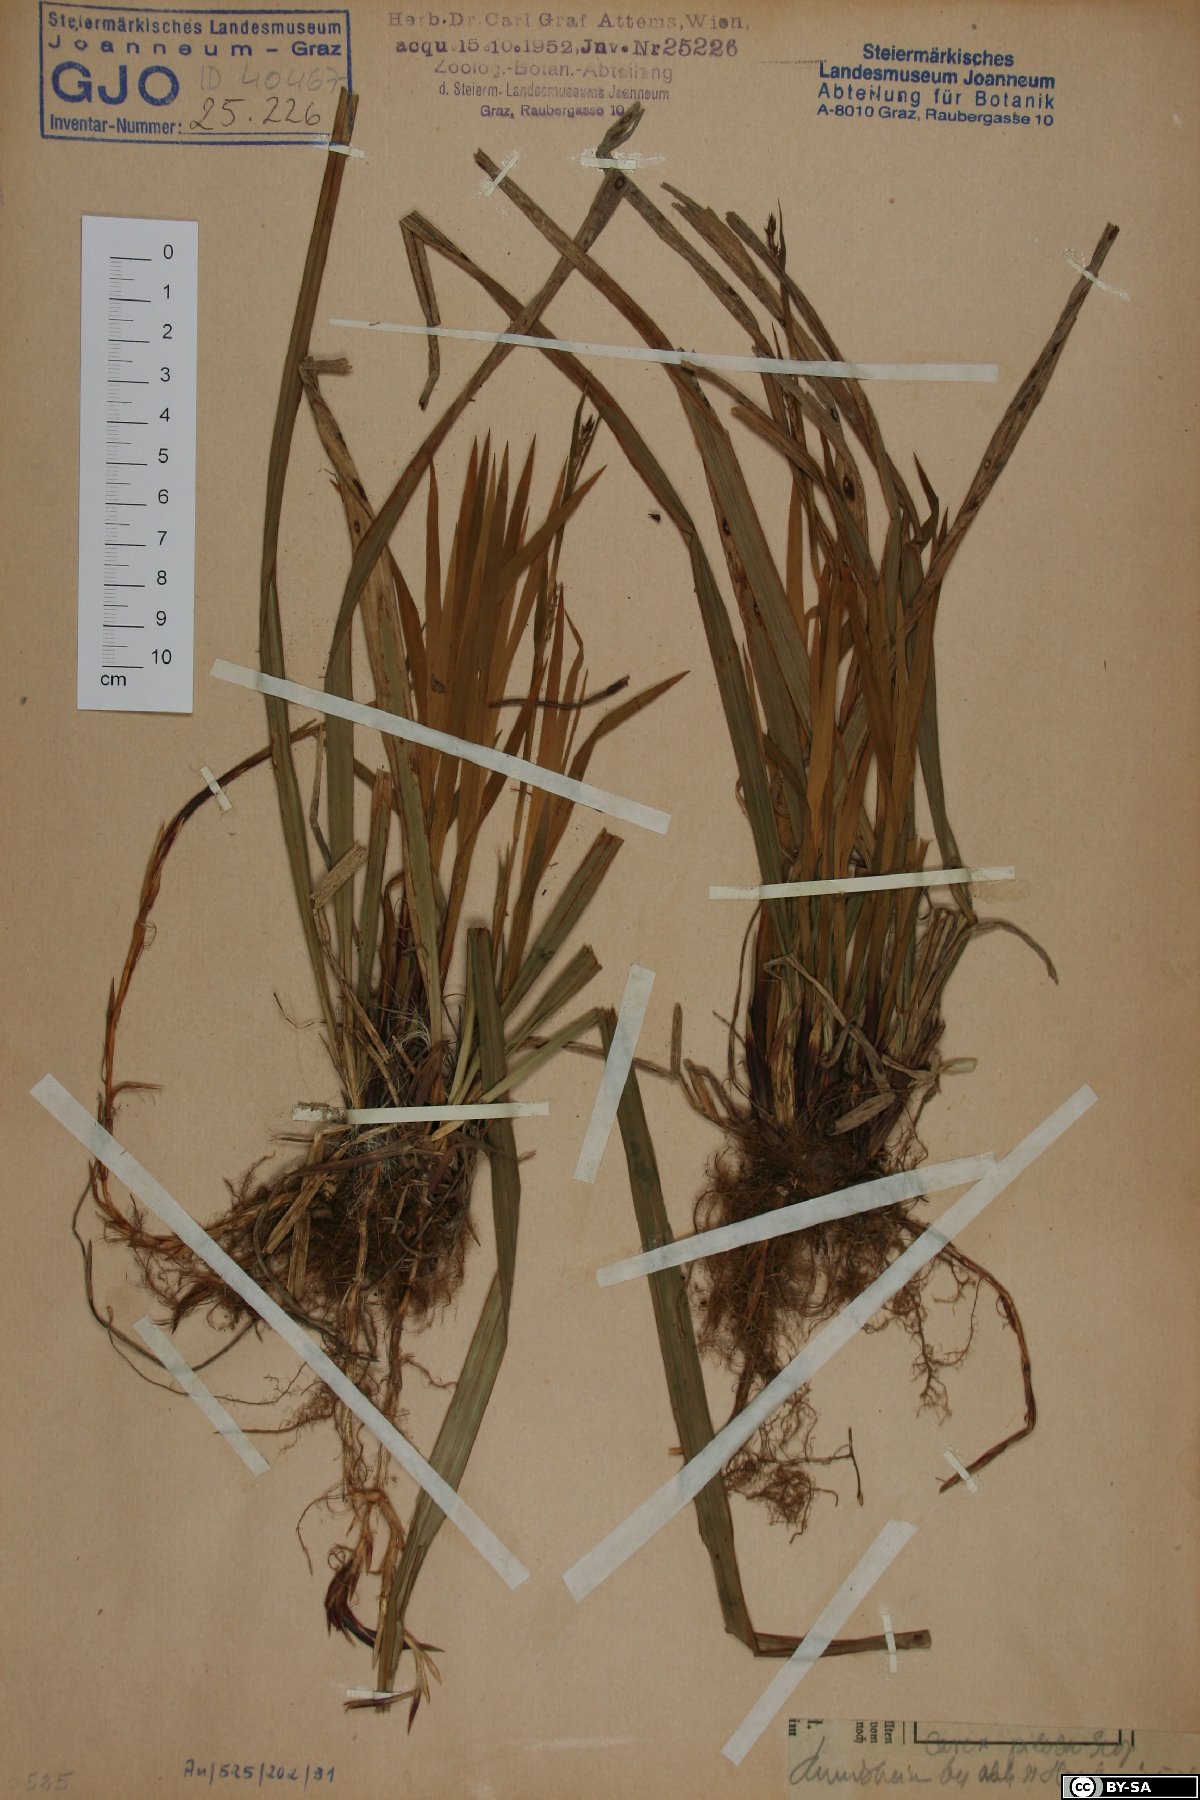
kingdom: Plantae
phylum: Tracheophyta
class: Liliopsida
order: Poales
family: Cyperaceae
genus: Carex
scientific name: Carex pilosa
